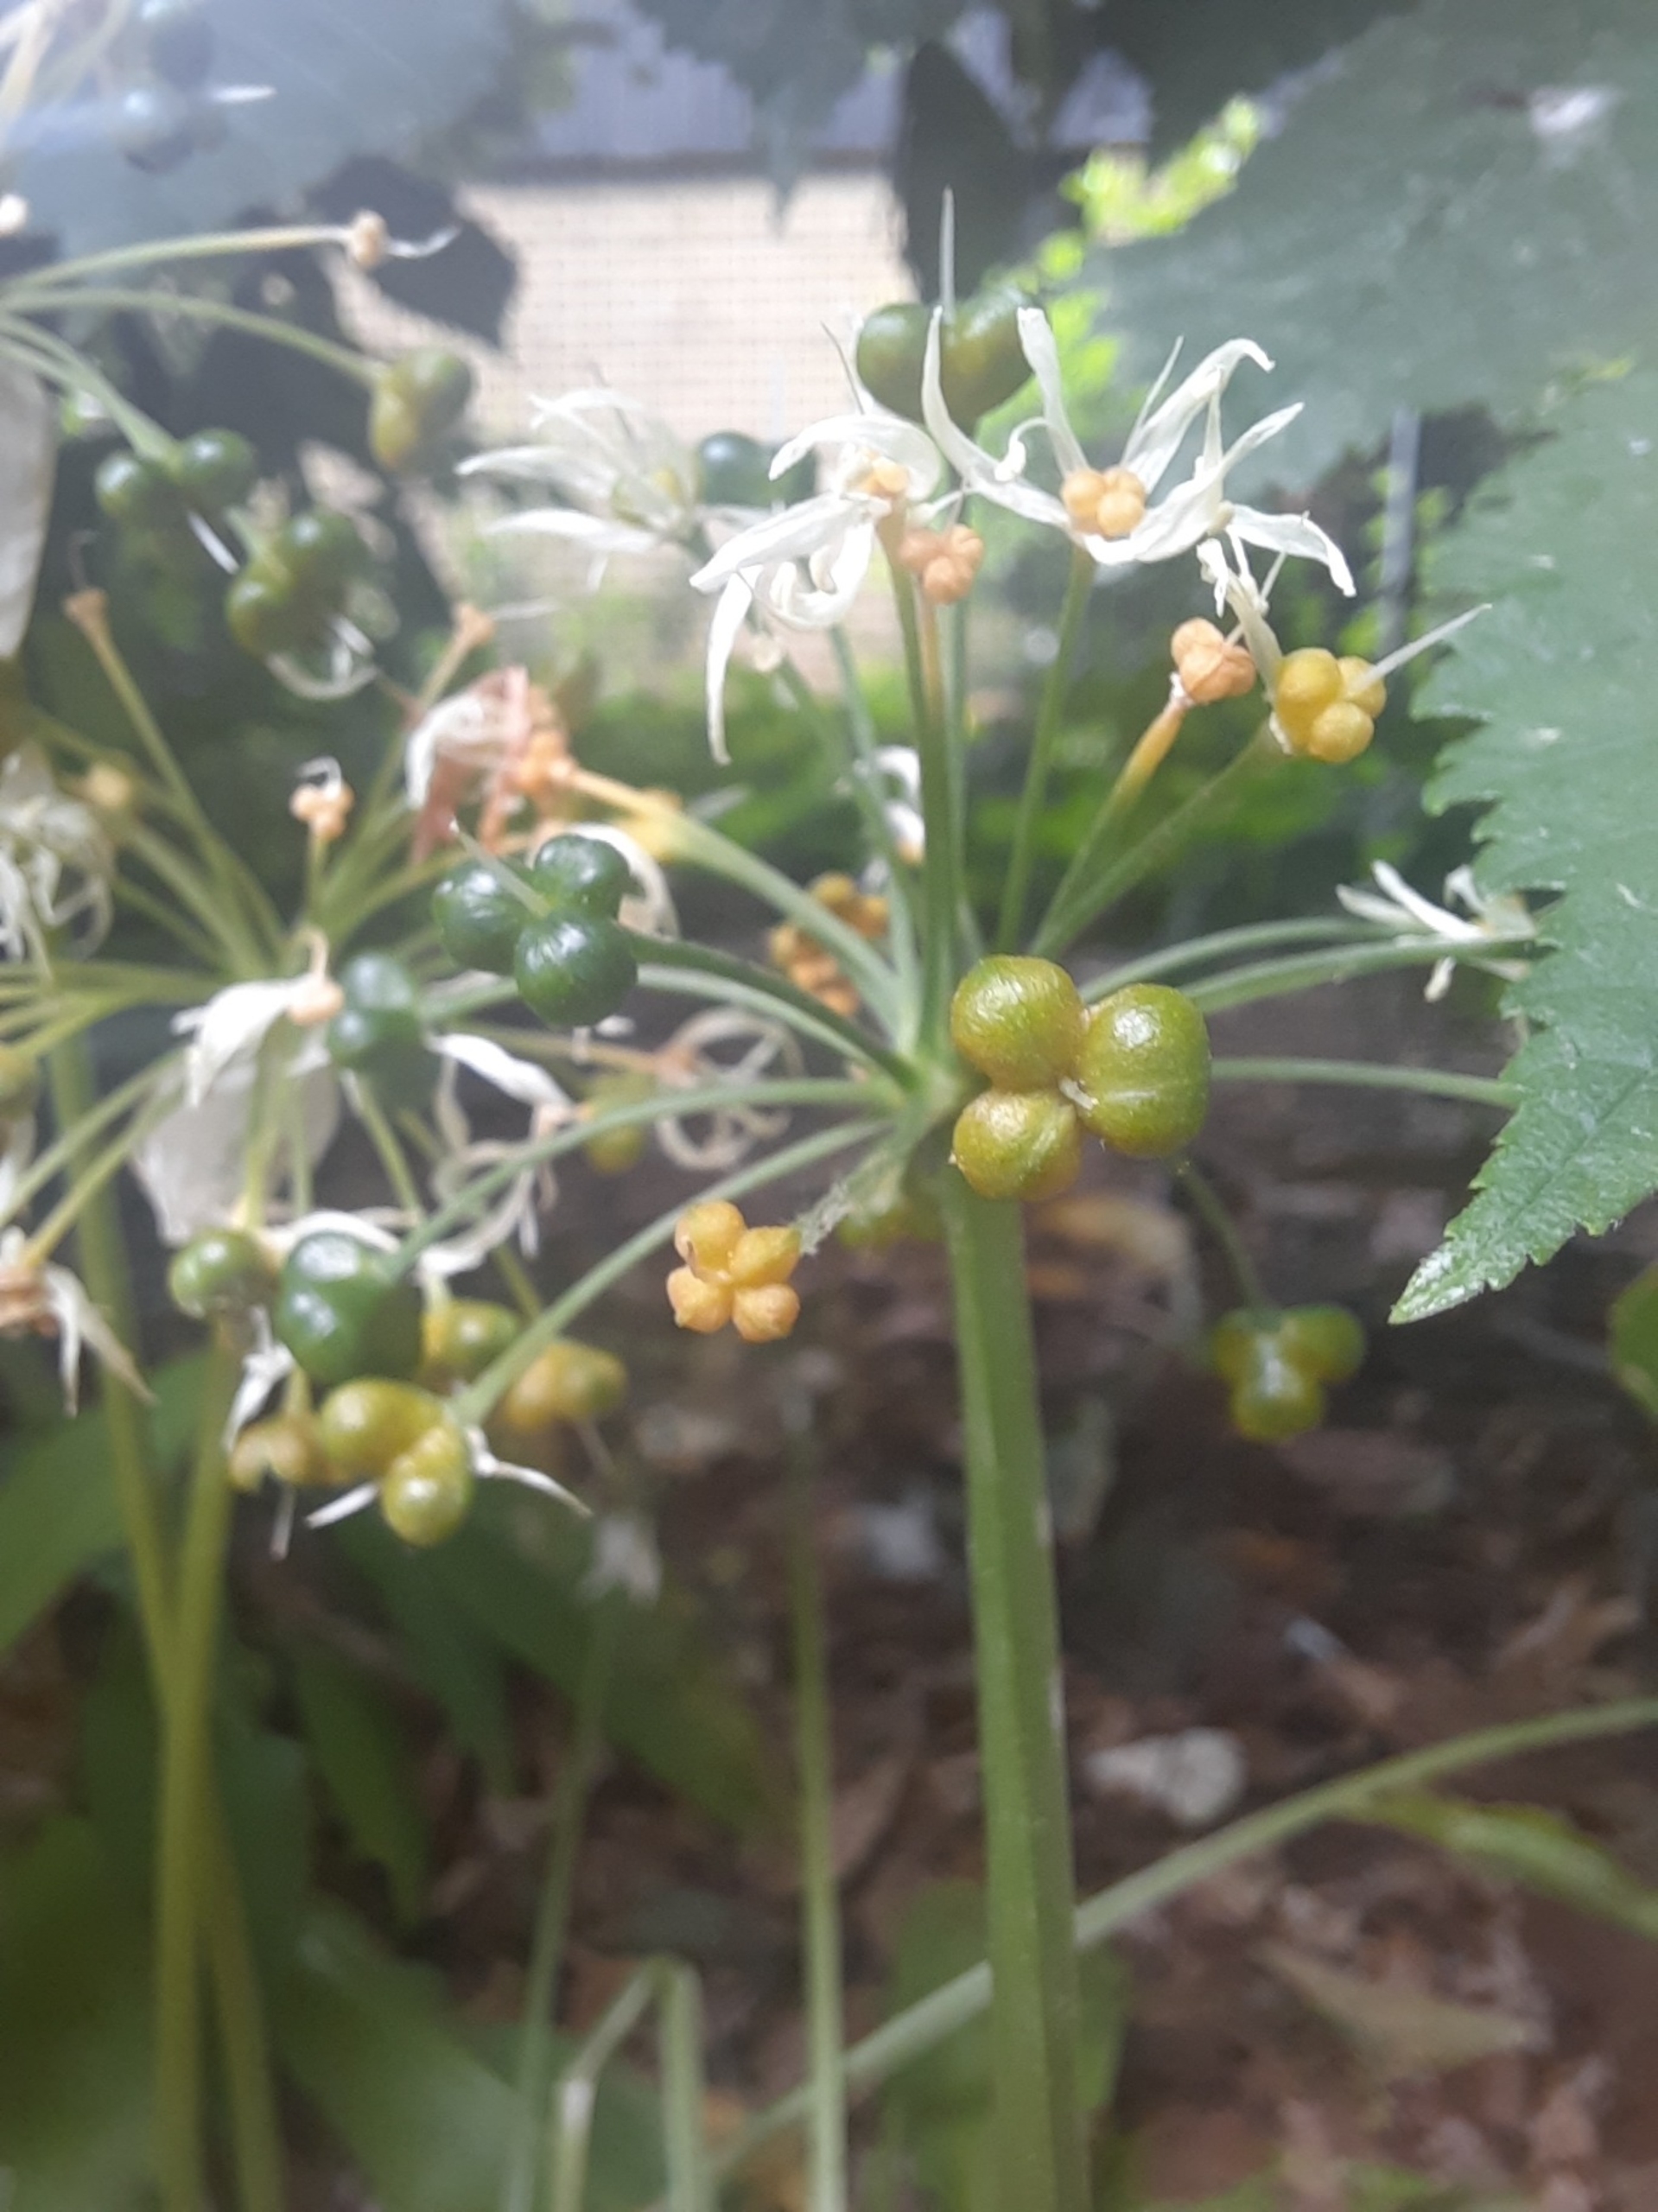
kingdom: Plantae
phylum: Tracheophyta
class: Liliopsida
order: Asparagales
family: Amaryllidaceae
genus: Allium
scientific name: Allium ursinum
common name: Rams-løg
